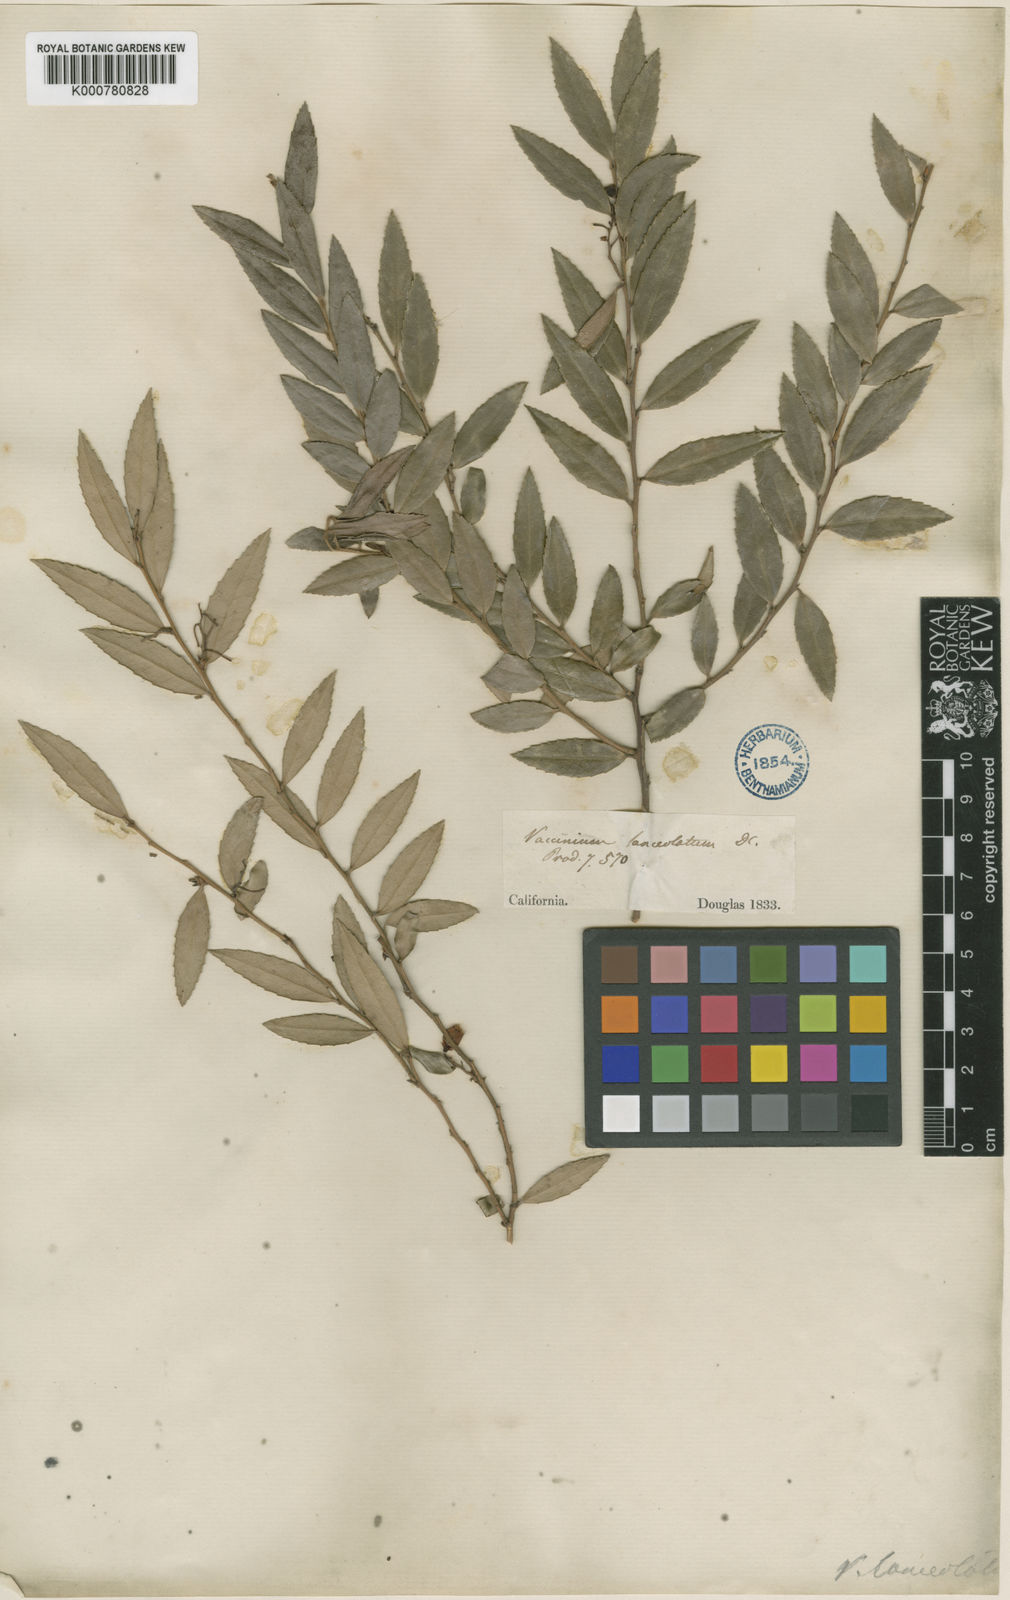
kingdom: Plantae
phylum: Tracheophyta
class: Magnoliopsida
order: Ericales
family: Ericaceae
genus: Vaccinium
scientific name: Vaccinium ovatum
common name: California-huckleberry
